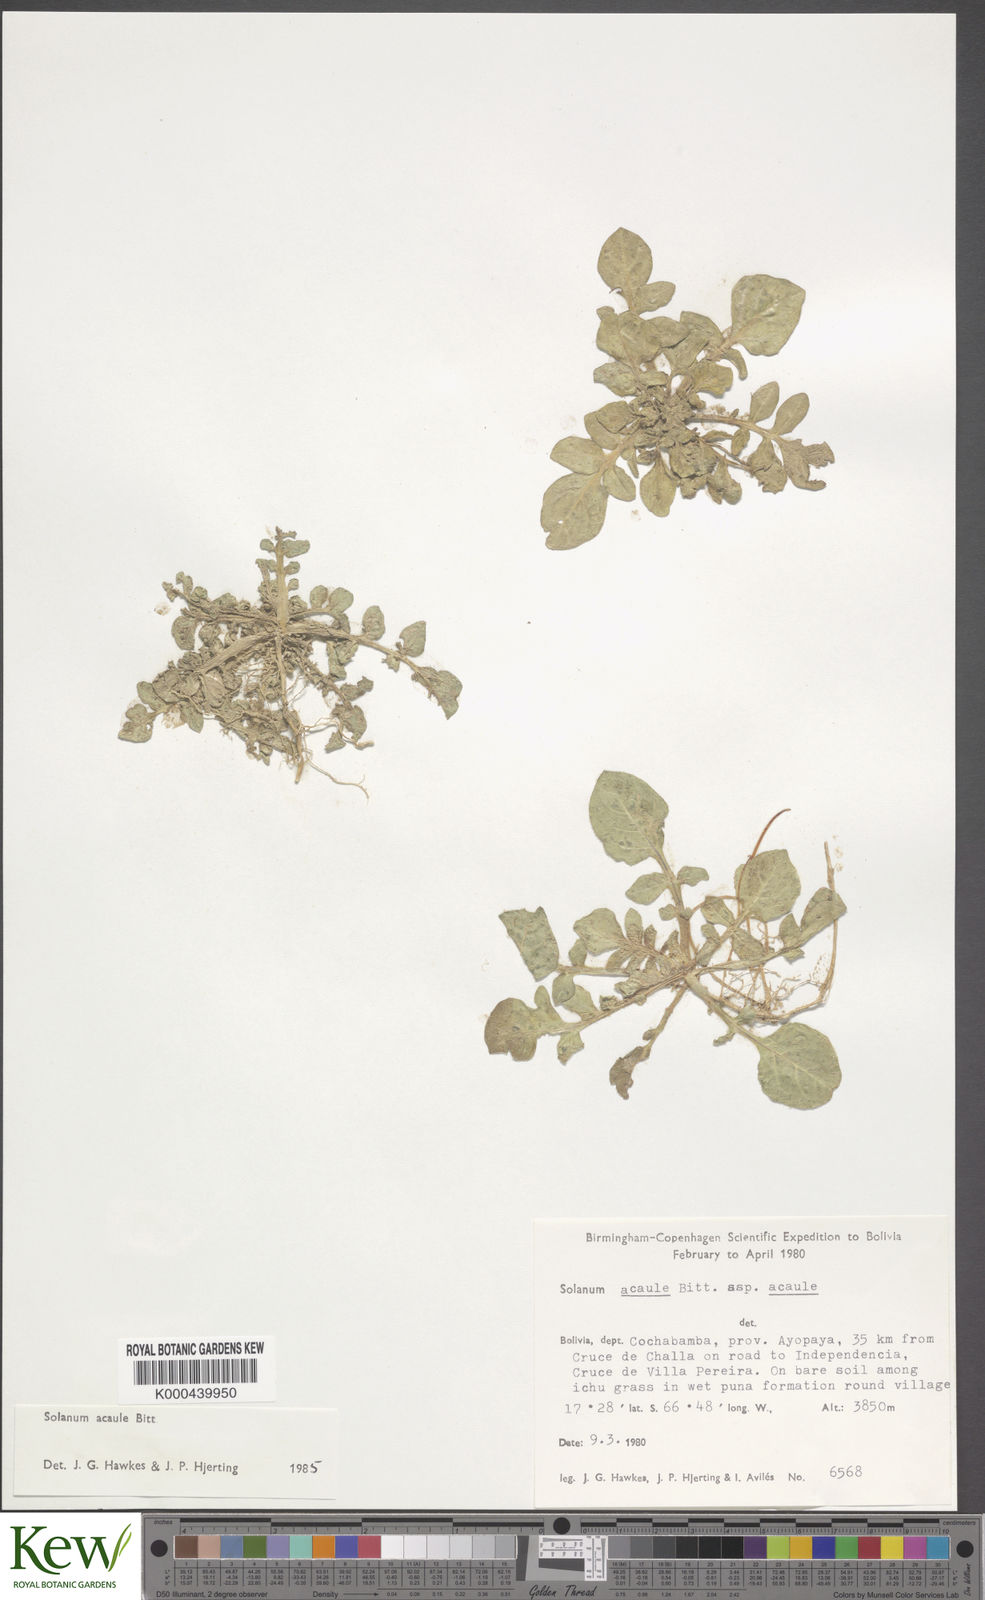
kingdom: Plantae
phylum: Tracheophyta
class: Magnoliopsida
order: Solanales
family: Solanaceae
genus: Solanum
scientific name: Solanum acaule
